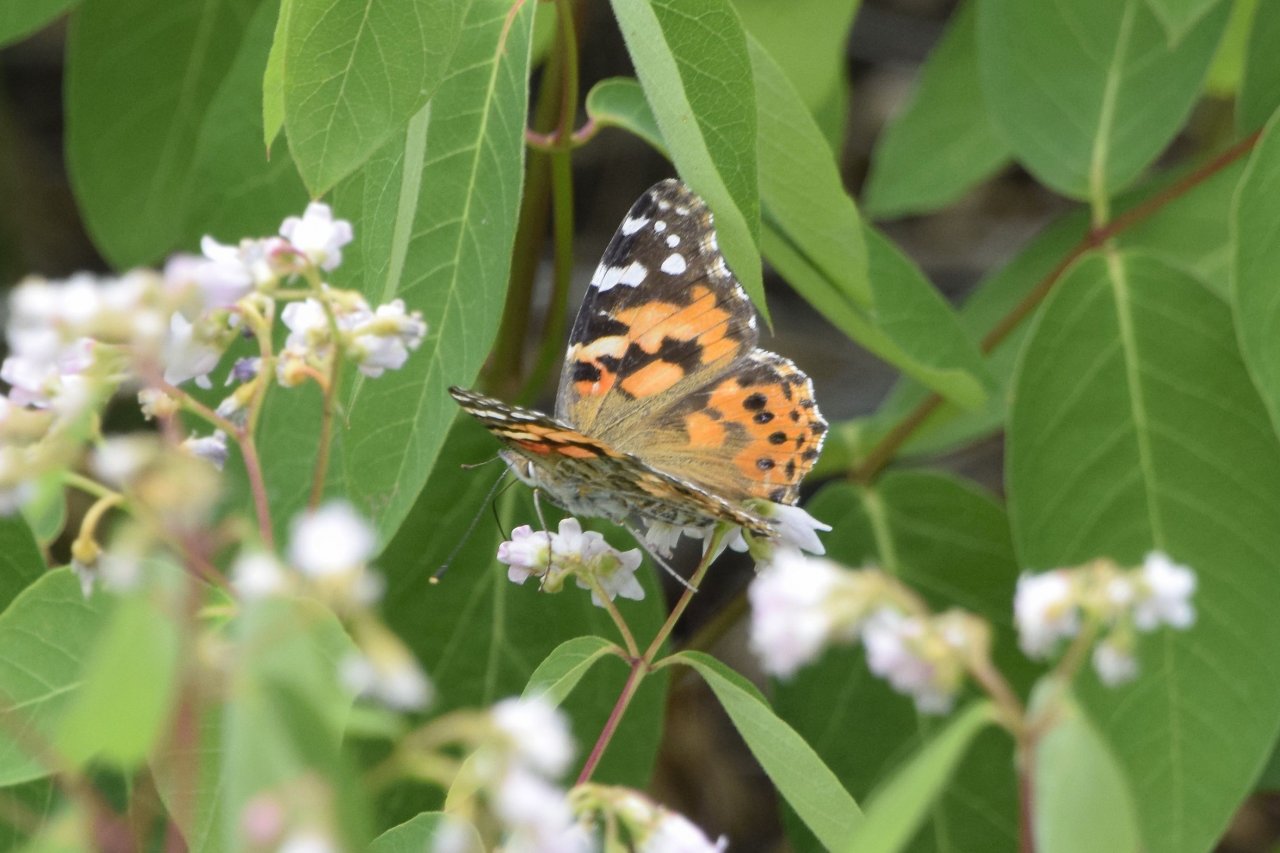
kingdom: Animalia
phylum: Arthropoda
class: Insecta
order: Lepidoptera
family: Nymphalidae
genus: Vanessa
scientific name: Vanessa cardui
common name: Painted Lady
